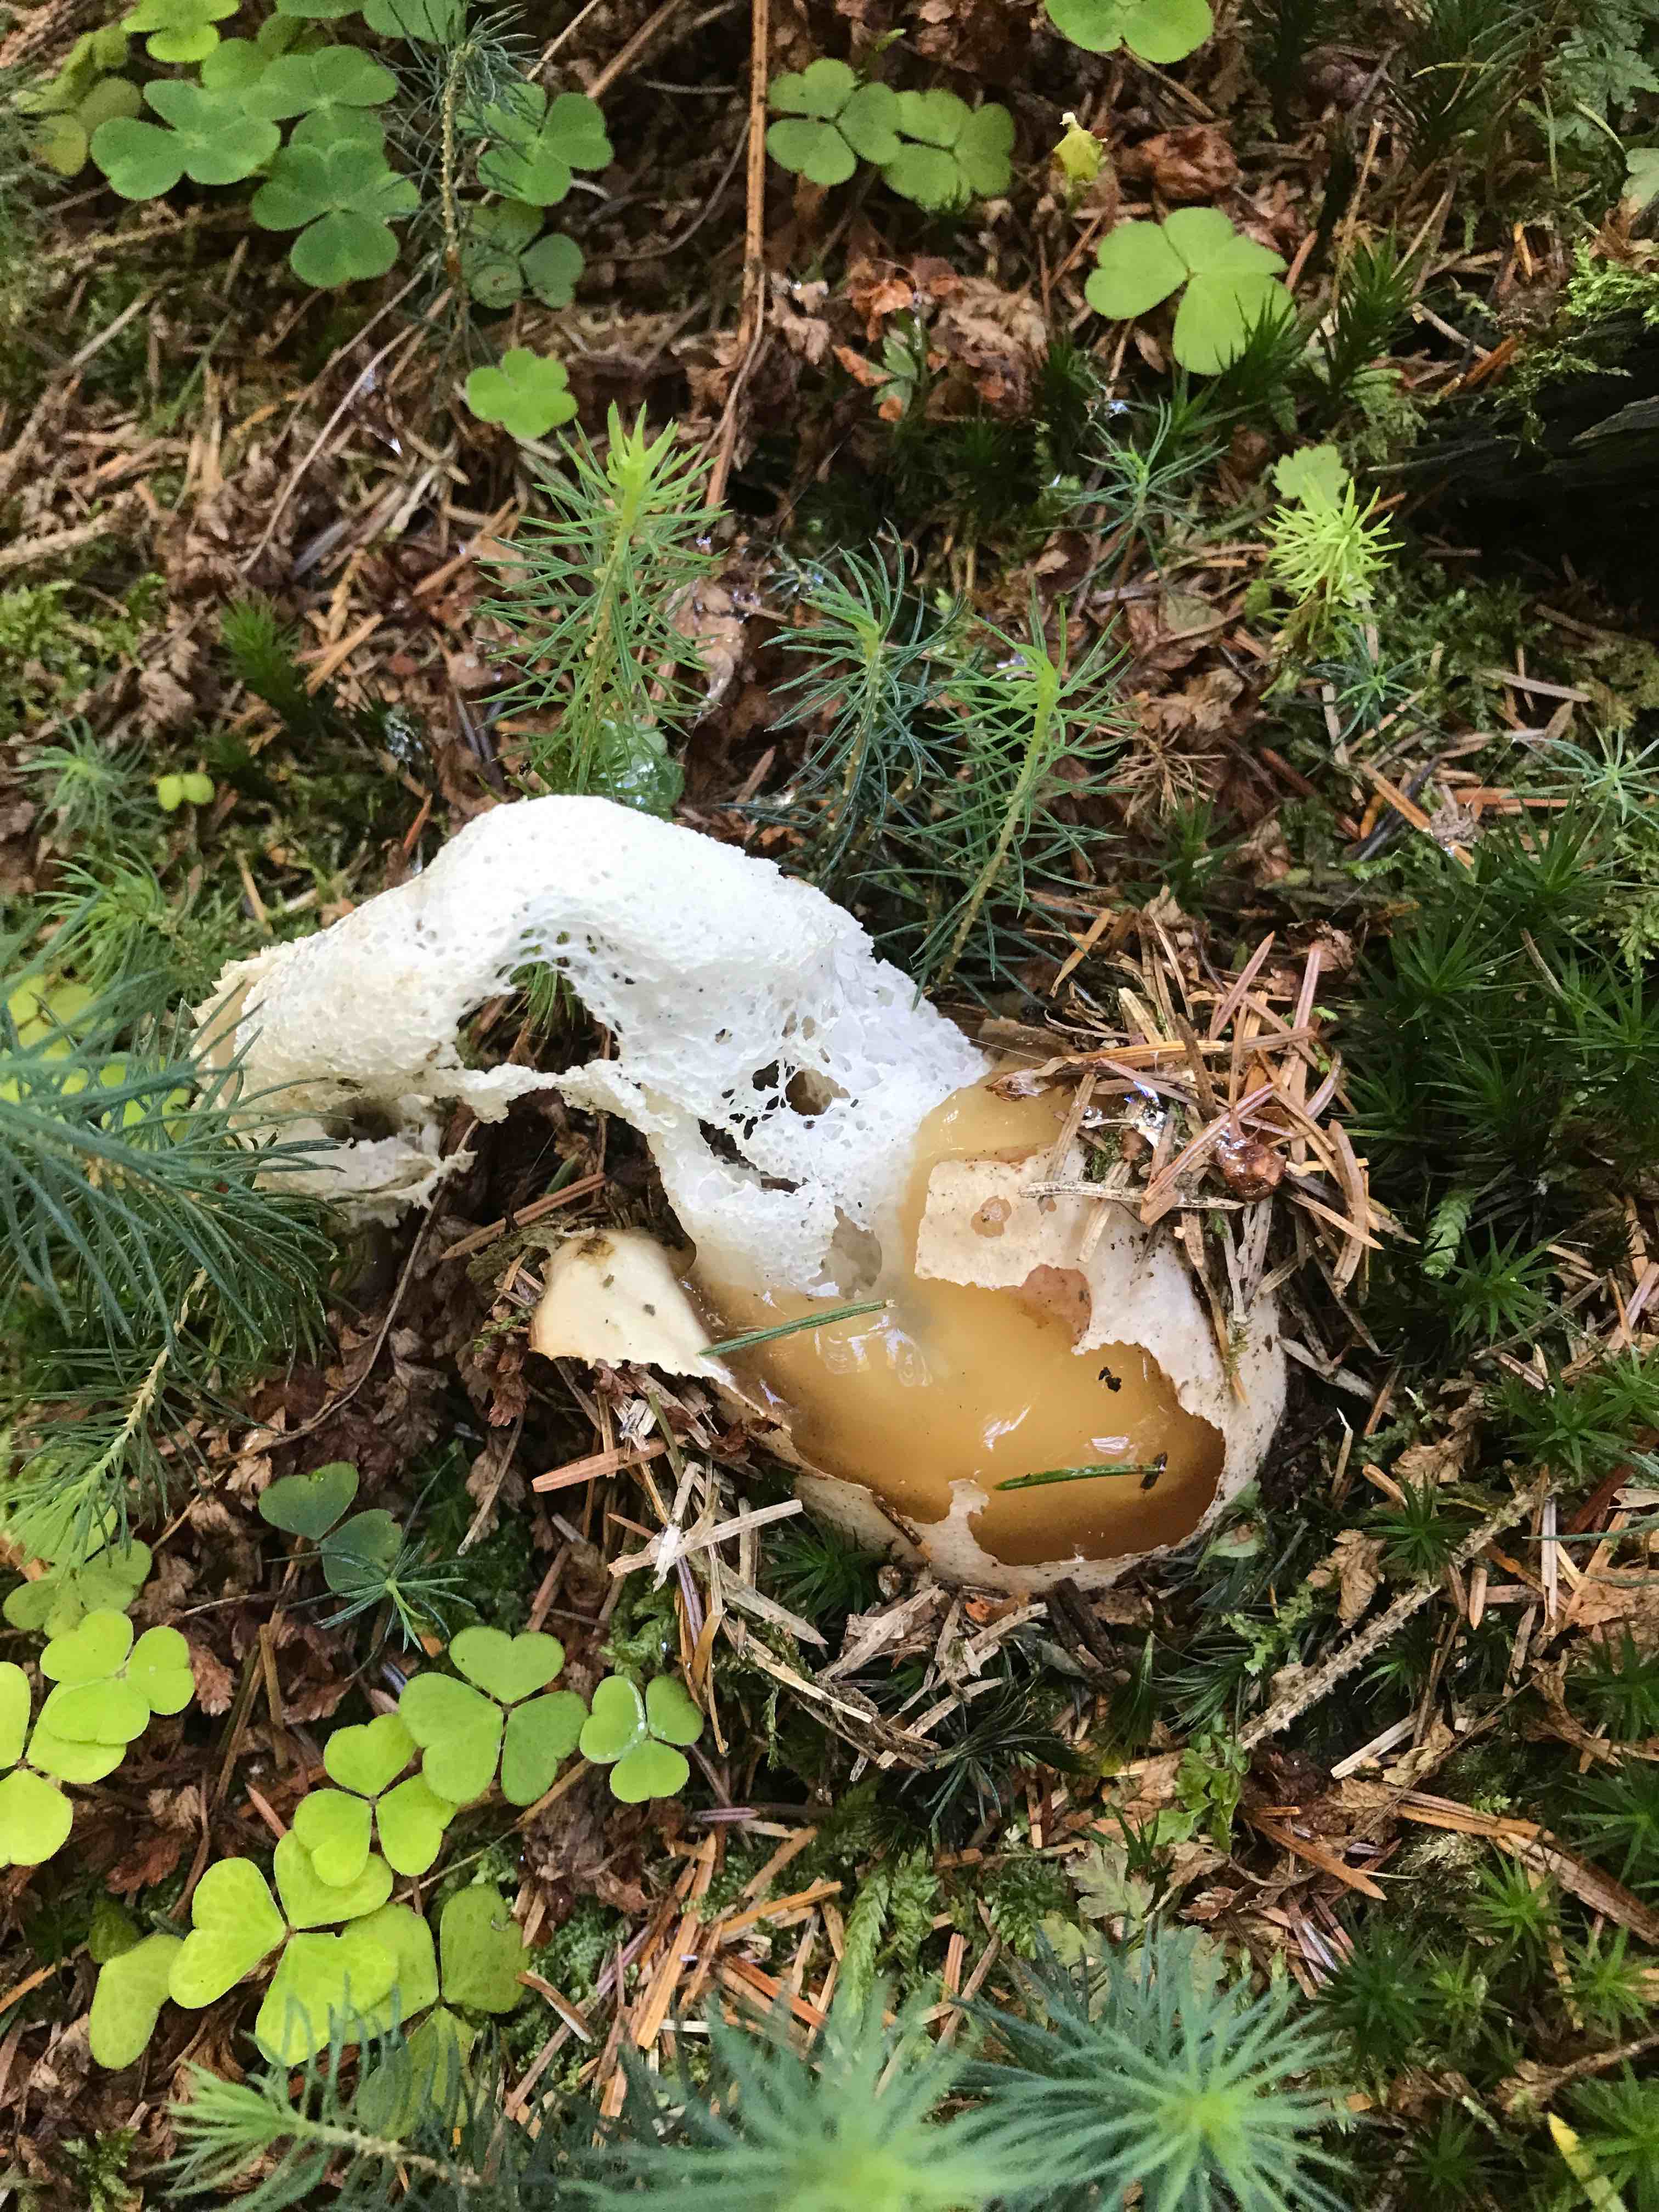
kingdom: Fungi
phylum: Basidiomycota
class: Agaricomycetes
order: Phallales
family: Phallaceae
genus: Phallus
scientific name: Phallus impudicus
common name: almindelig stinksvamp
